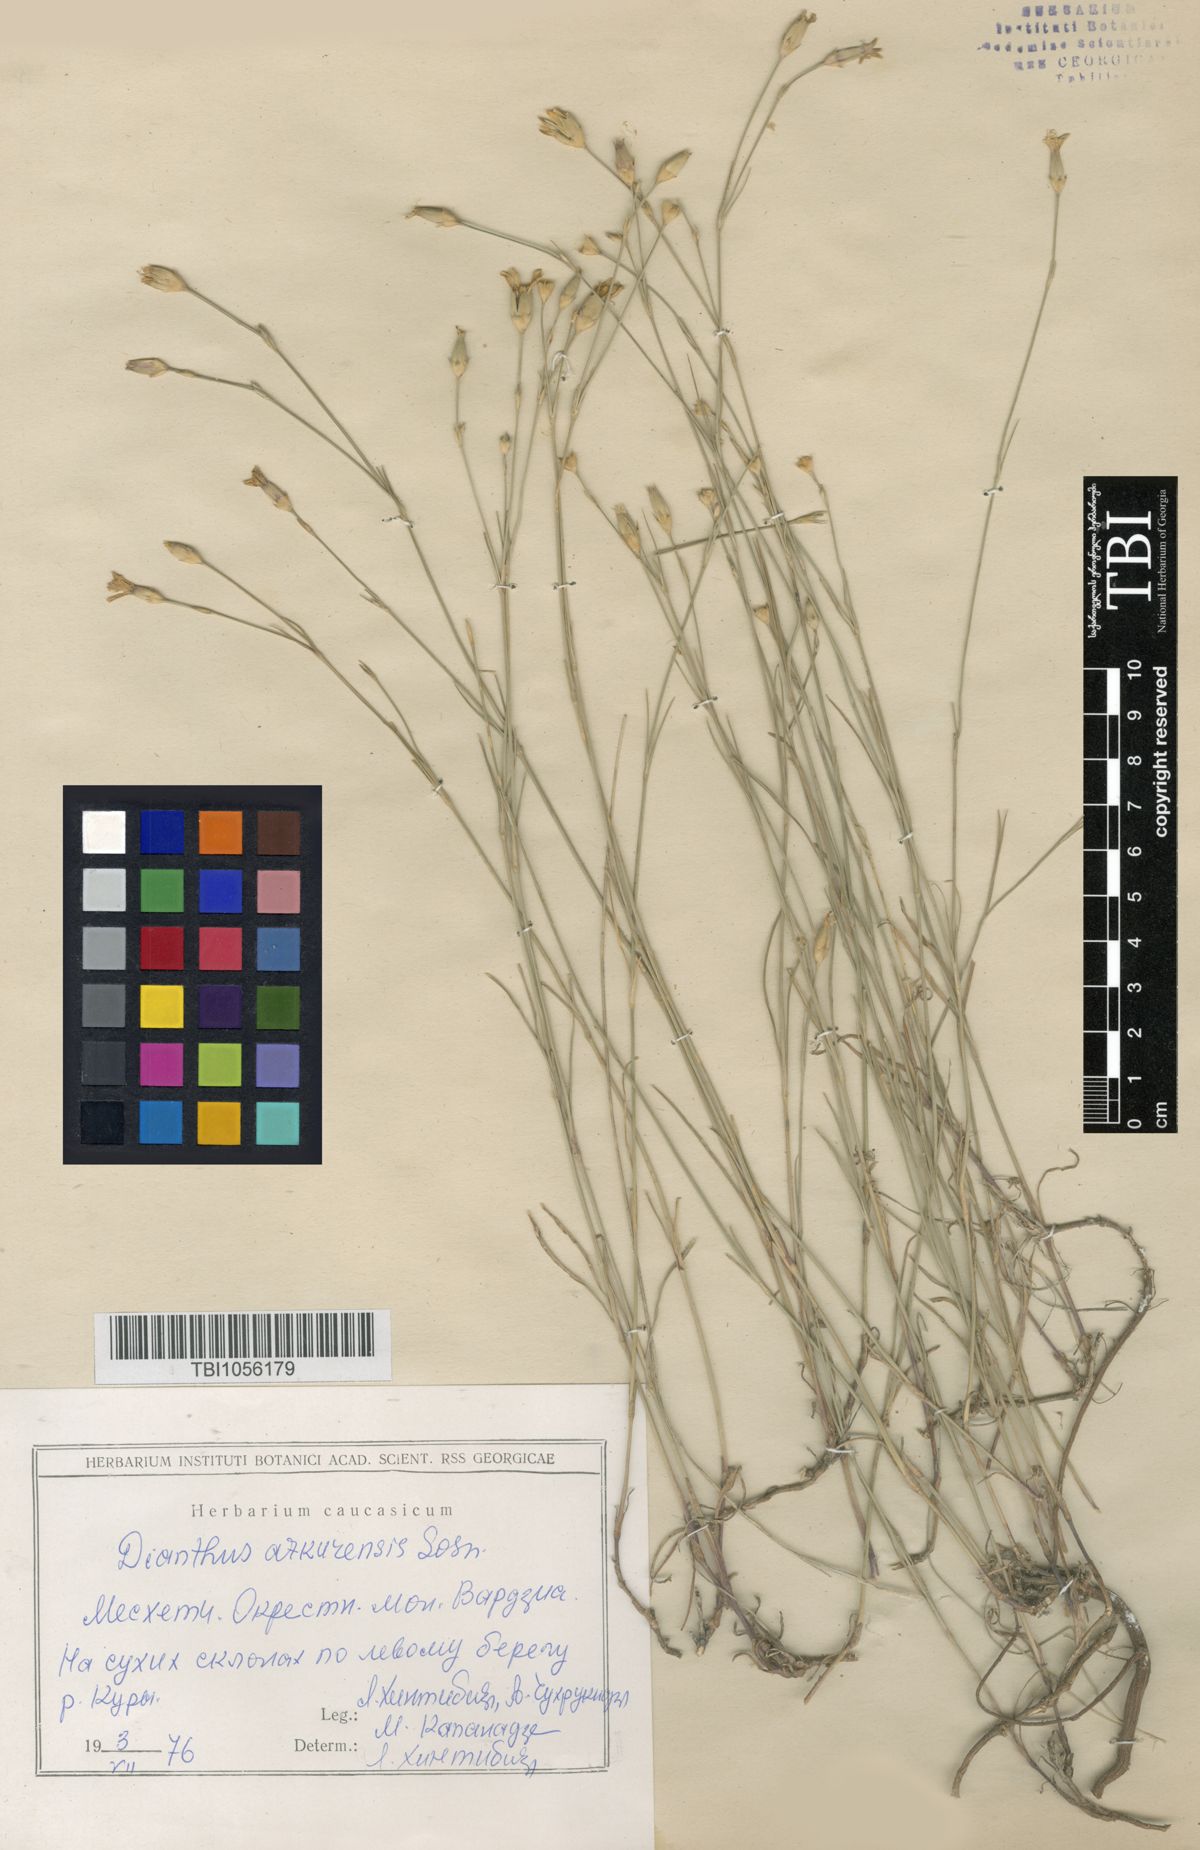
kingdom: Plantae
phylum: Tracheophyta
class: Magnoliopsida
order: Caryophyllales
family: Caryophyllaceae
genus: Dianthus
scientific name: Dianthus
